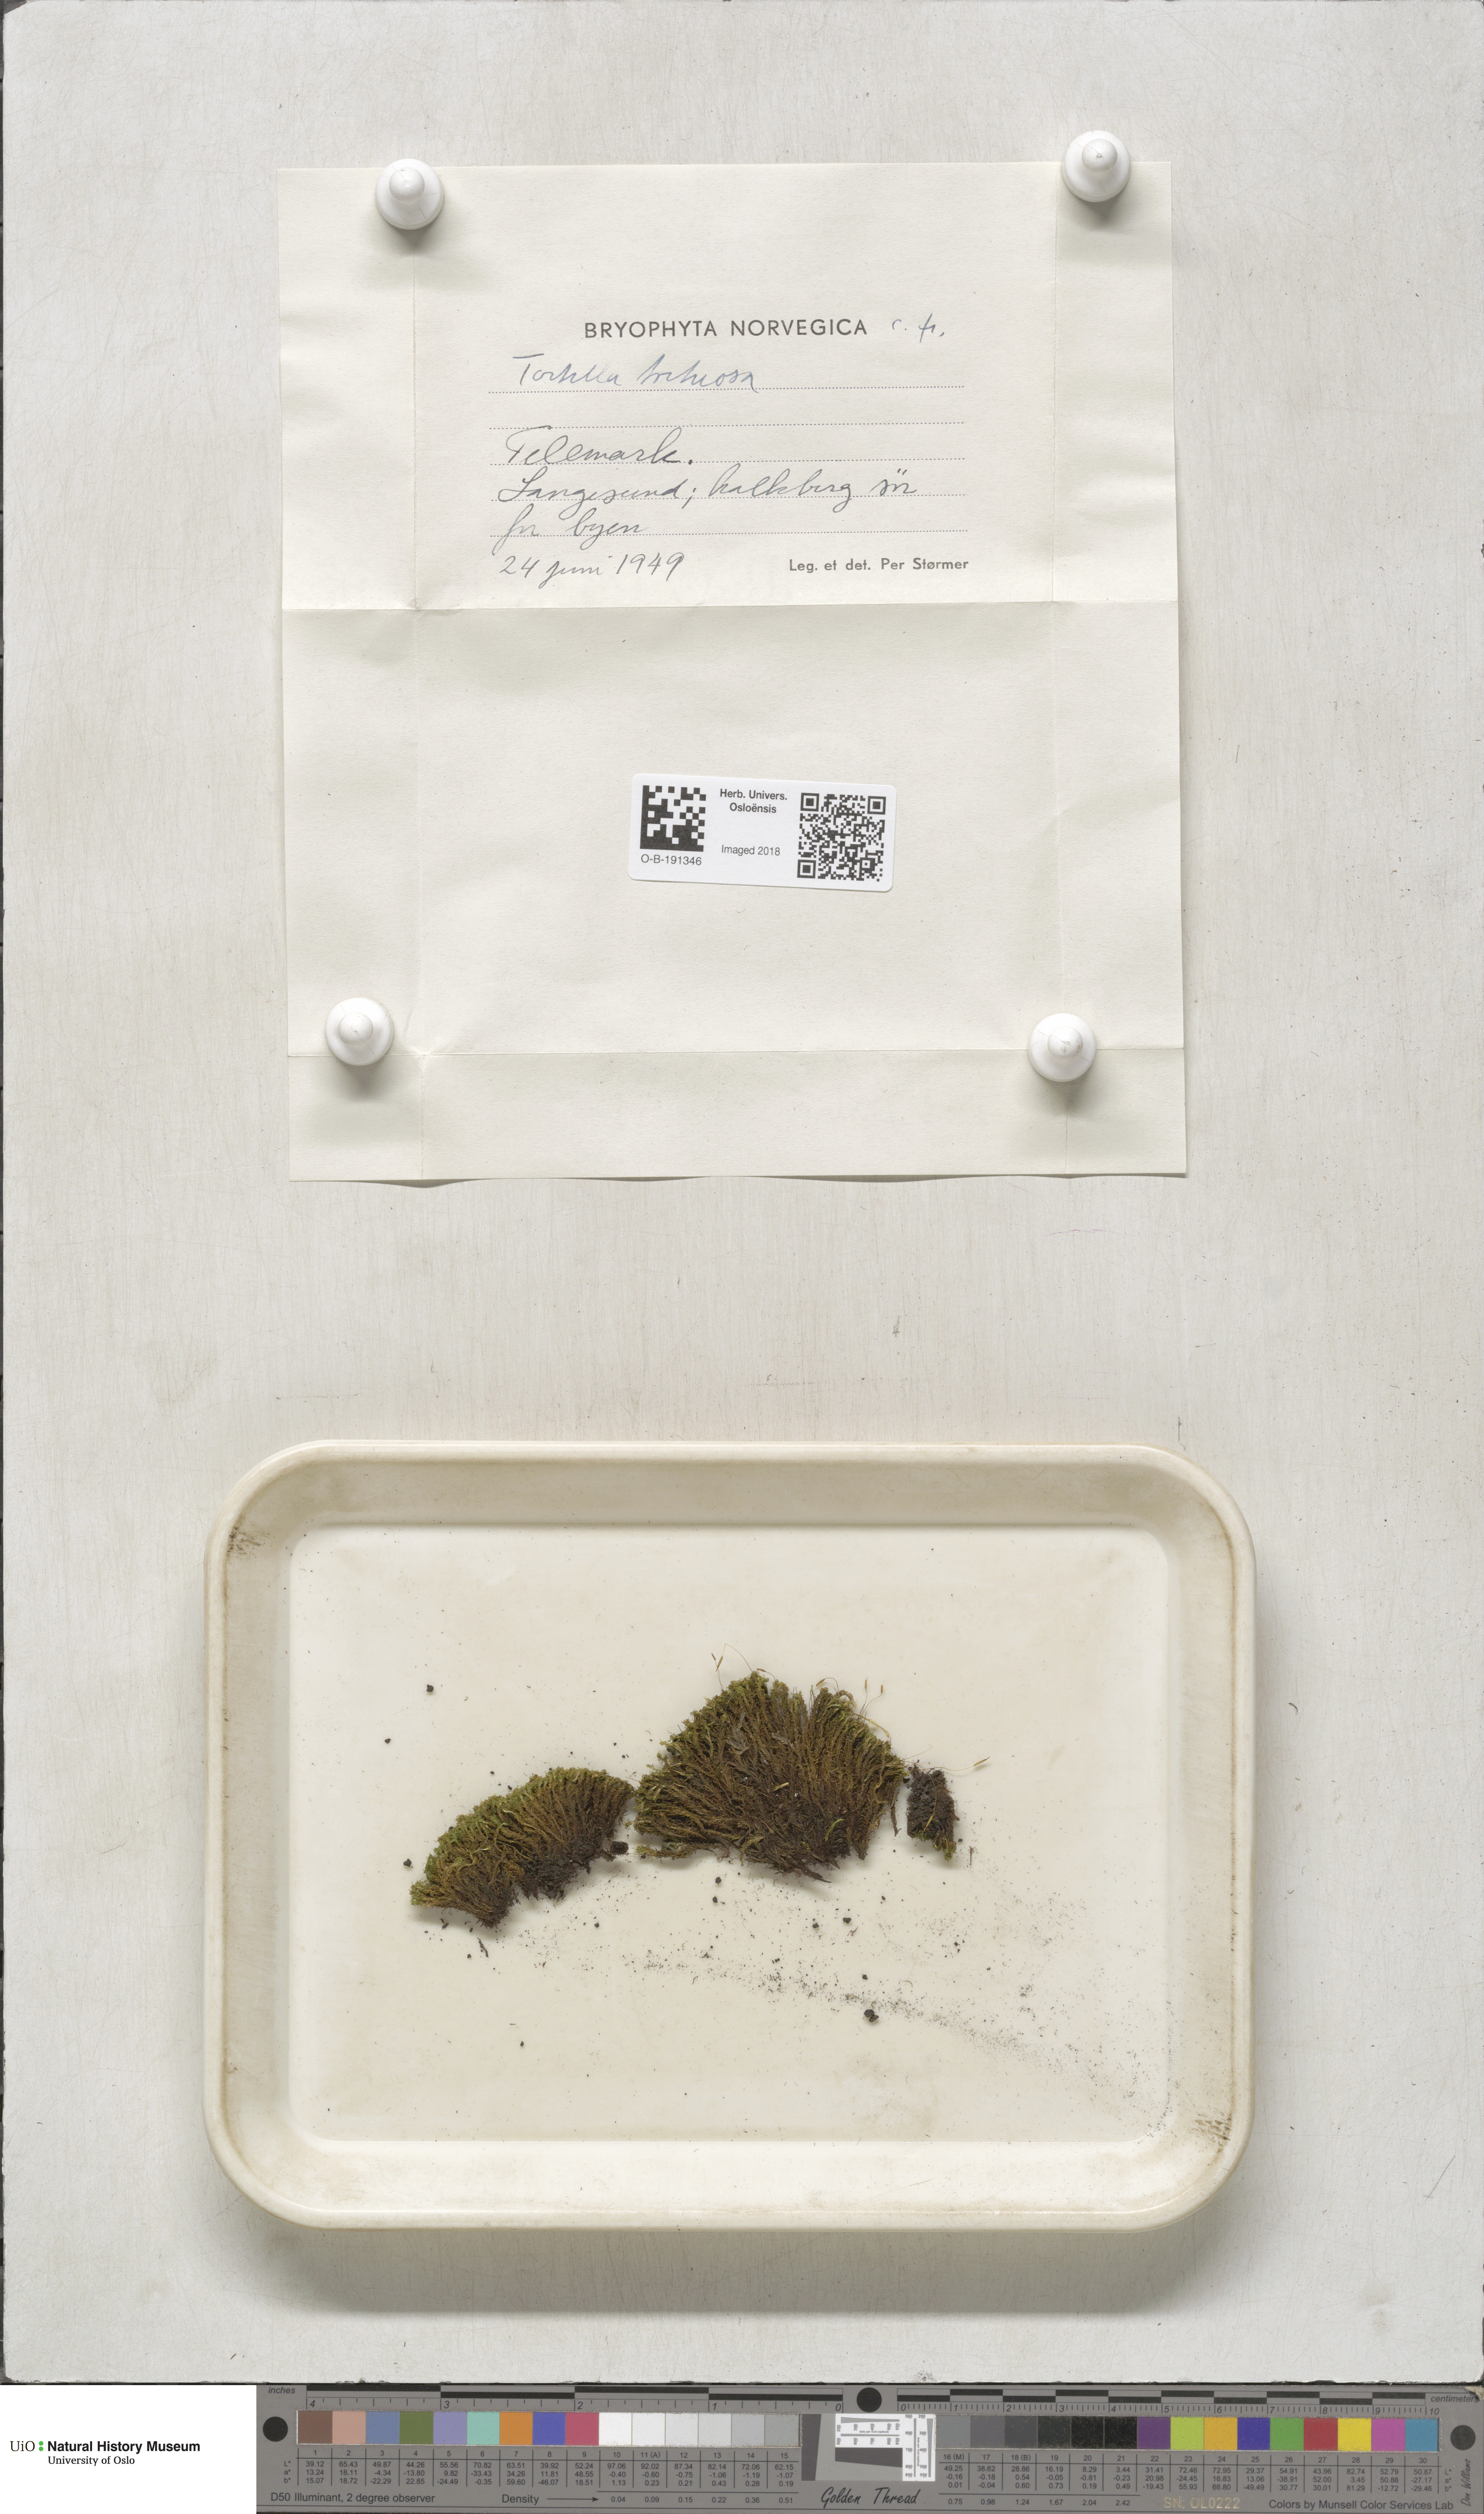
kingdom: Plantae
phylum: Bryophyta
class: Bryopsida
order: Pottiales
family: Pottiaceae
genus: Tortella
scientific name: Tortella tortuosa
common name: Frizzled crisp moss
